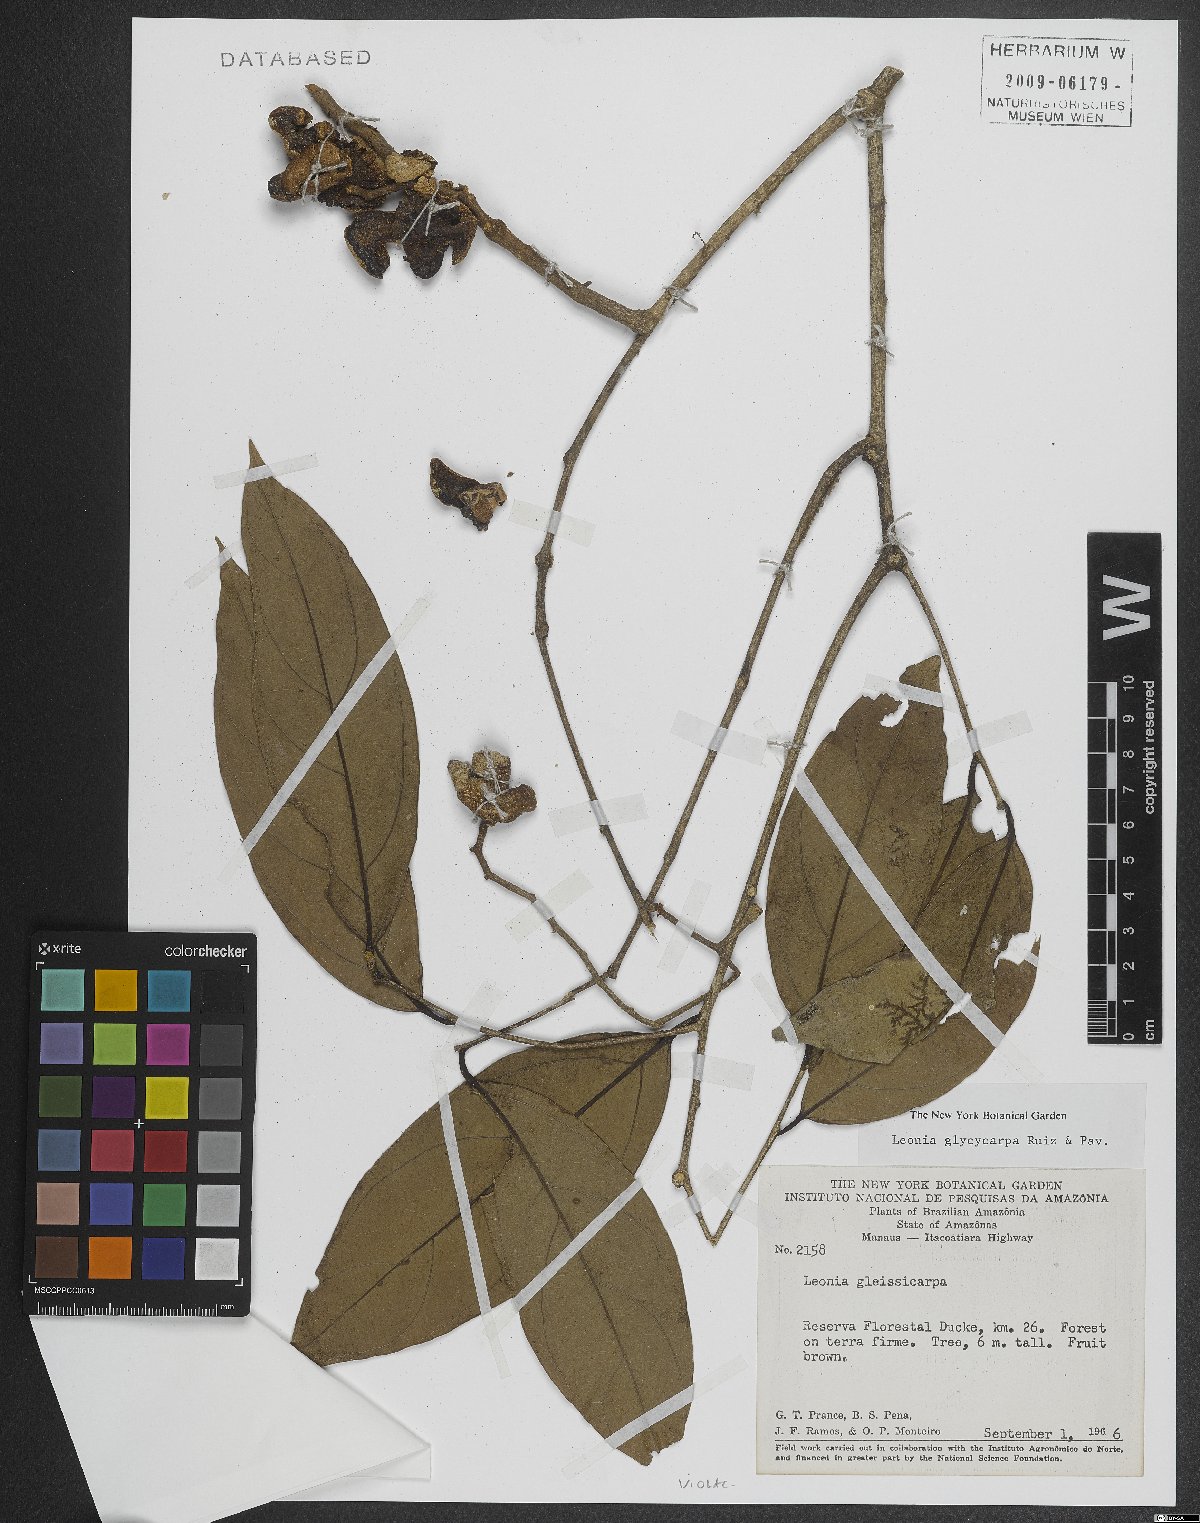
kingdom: Plantae
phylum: Tracheophyta
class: Magnoliopsida
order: Malpighiales
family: Violaceae
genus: Leonia
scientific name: Leonia glycycarpa
